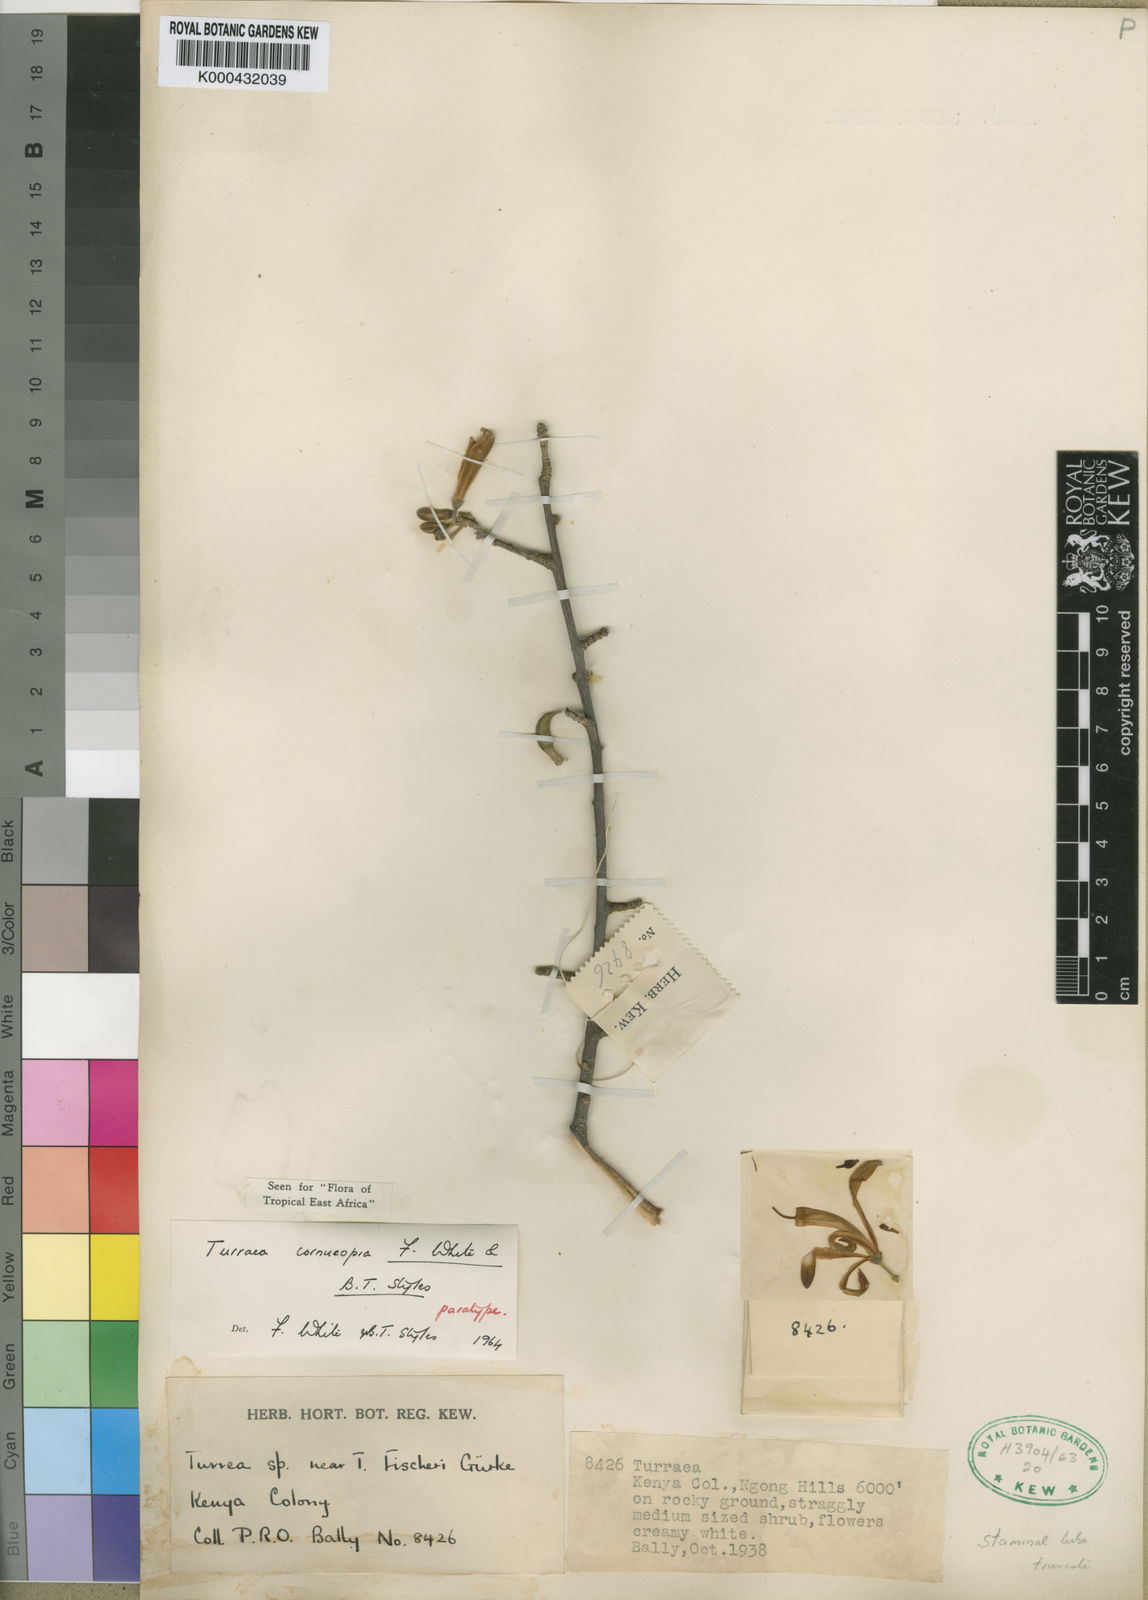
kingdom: Plantae
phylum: Tracheophyta
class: Magnoliopsida
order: Sapindales
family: Meliaceae
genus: Turraea
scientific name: Turraea cornucopia
